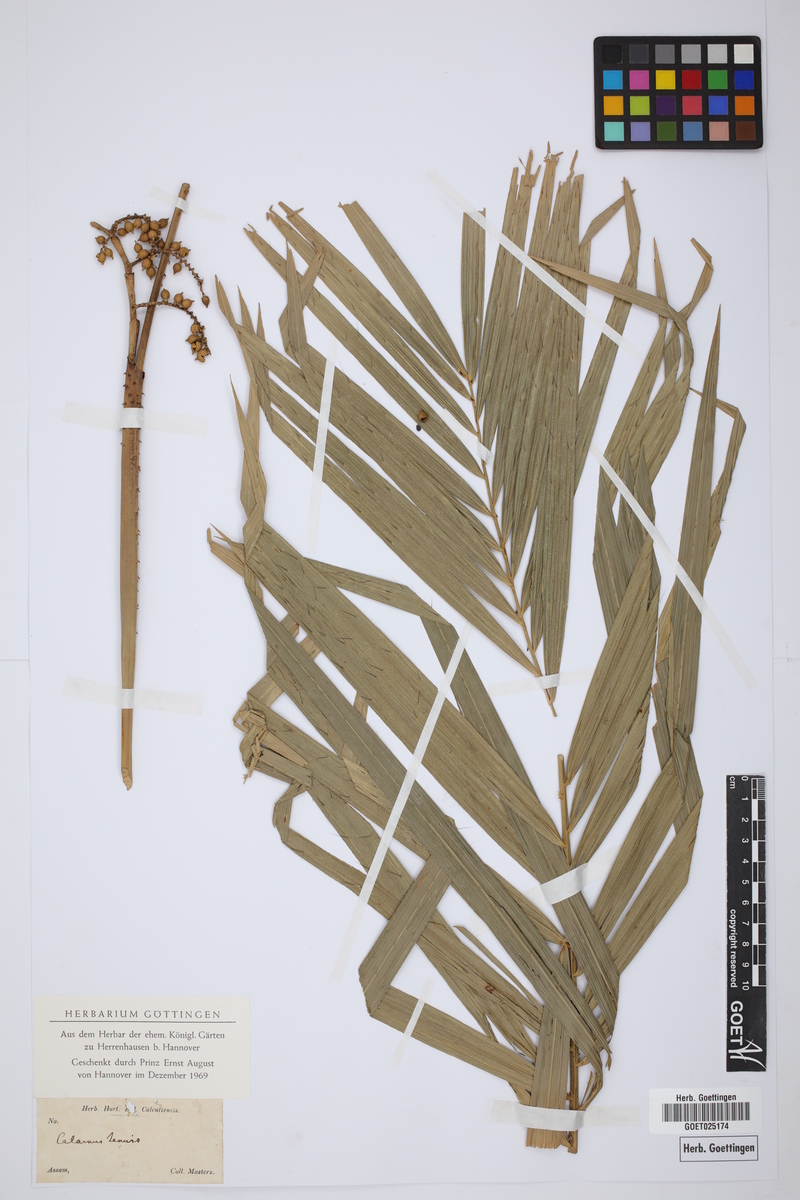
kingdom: Plantae
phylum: Tracheophyta
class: Liliopsida
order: Arecales
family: Arecaceae
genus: Calamus
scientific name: Calamus tenuis
